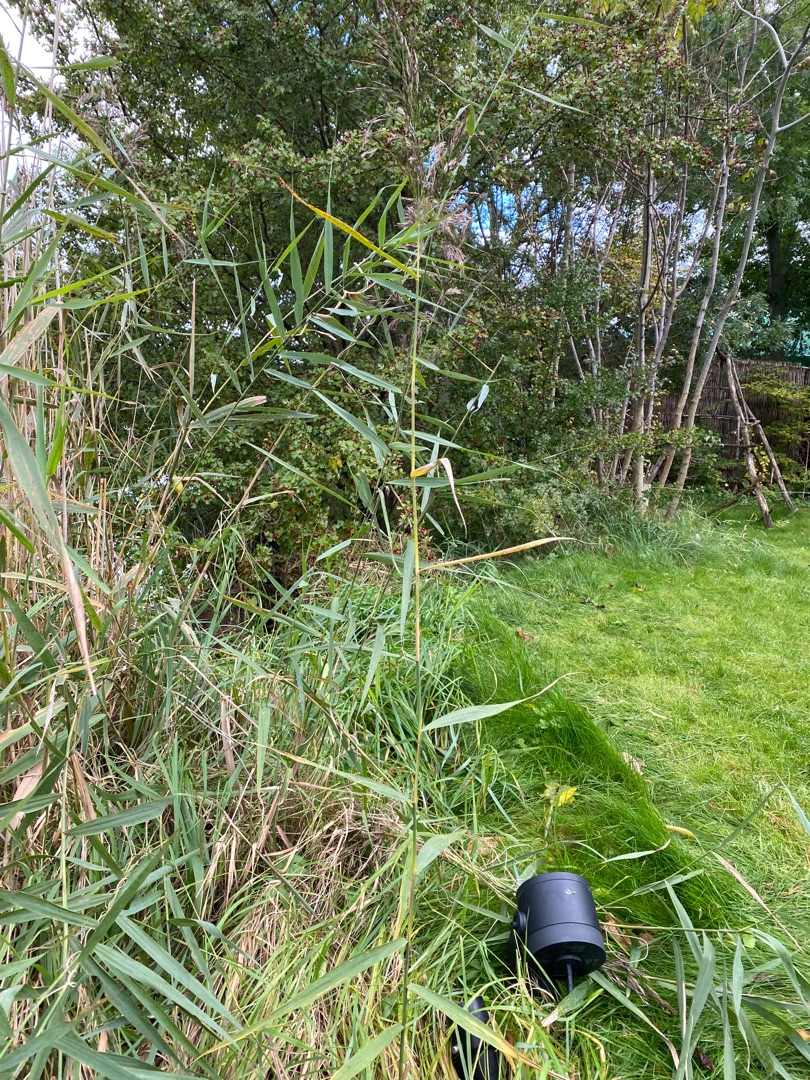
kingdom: Plantae
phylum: Tracheophyta
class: Liliopsida
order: Poales
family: Poaceae
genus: Phragmites
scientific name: Phragmites australis
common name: Tagrør
